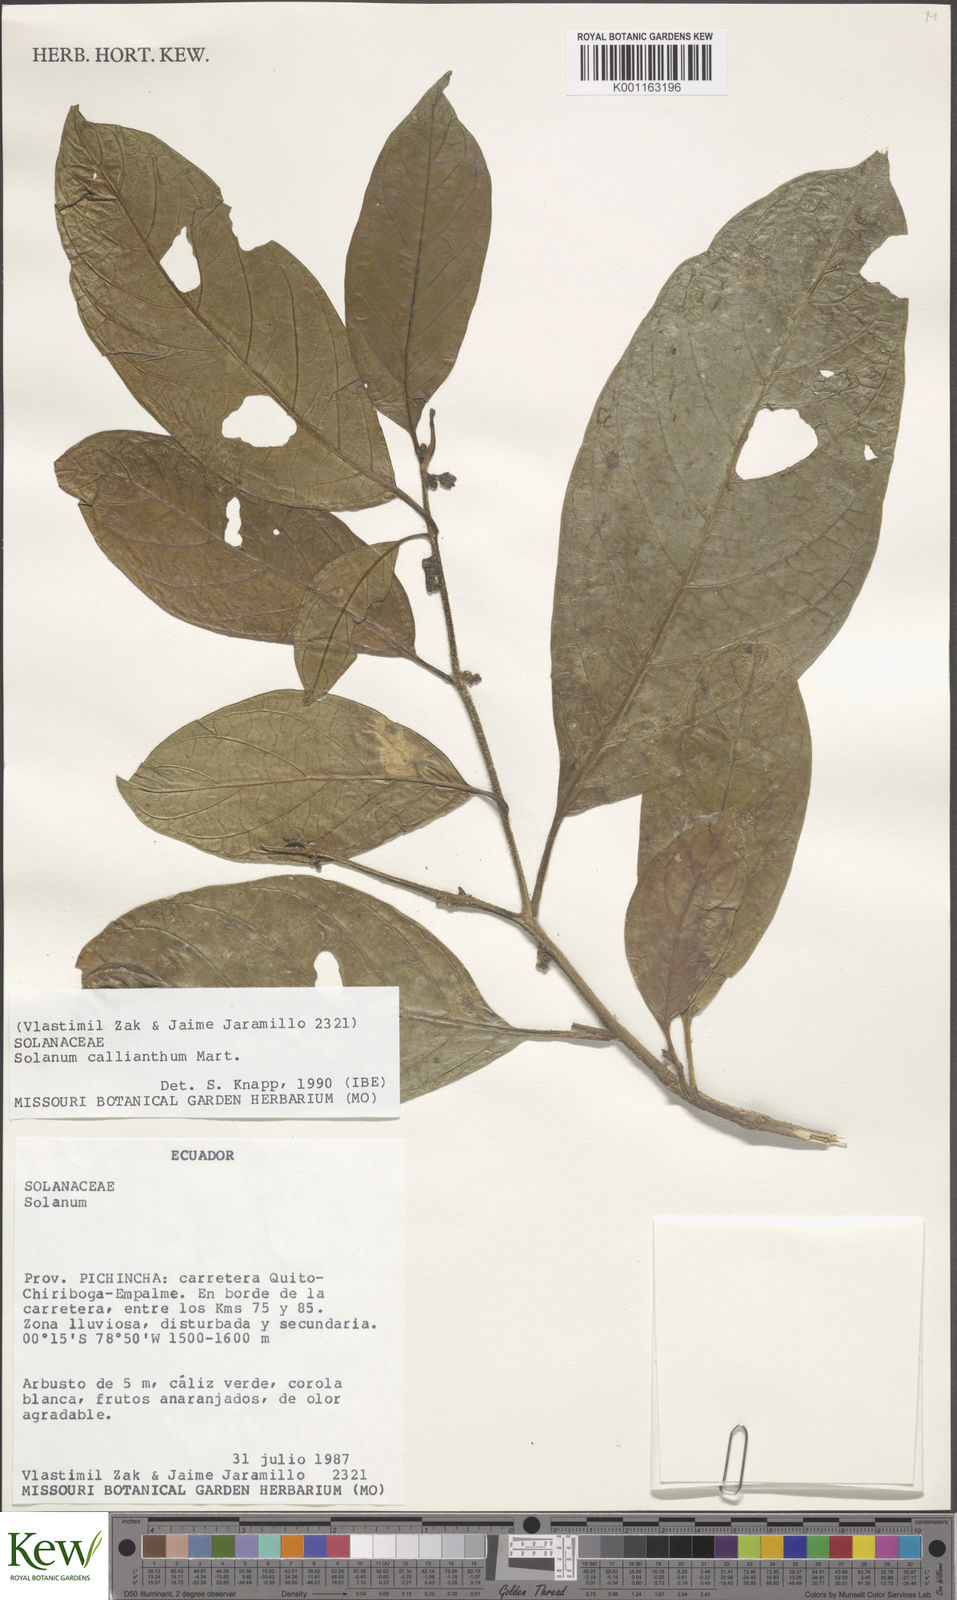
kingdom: Plantae
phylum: Tracheophyta
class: Magnoliopsida
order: Solanales
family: Solanaceae
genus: Solanum
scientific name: Solanum callianthum
